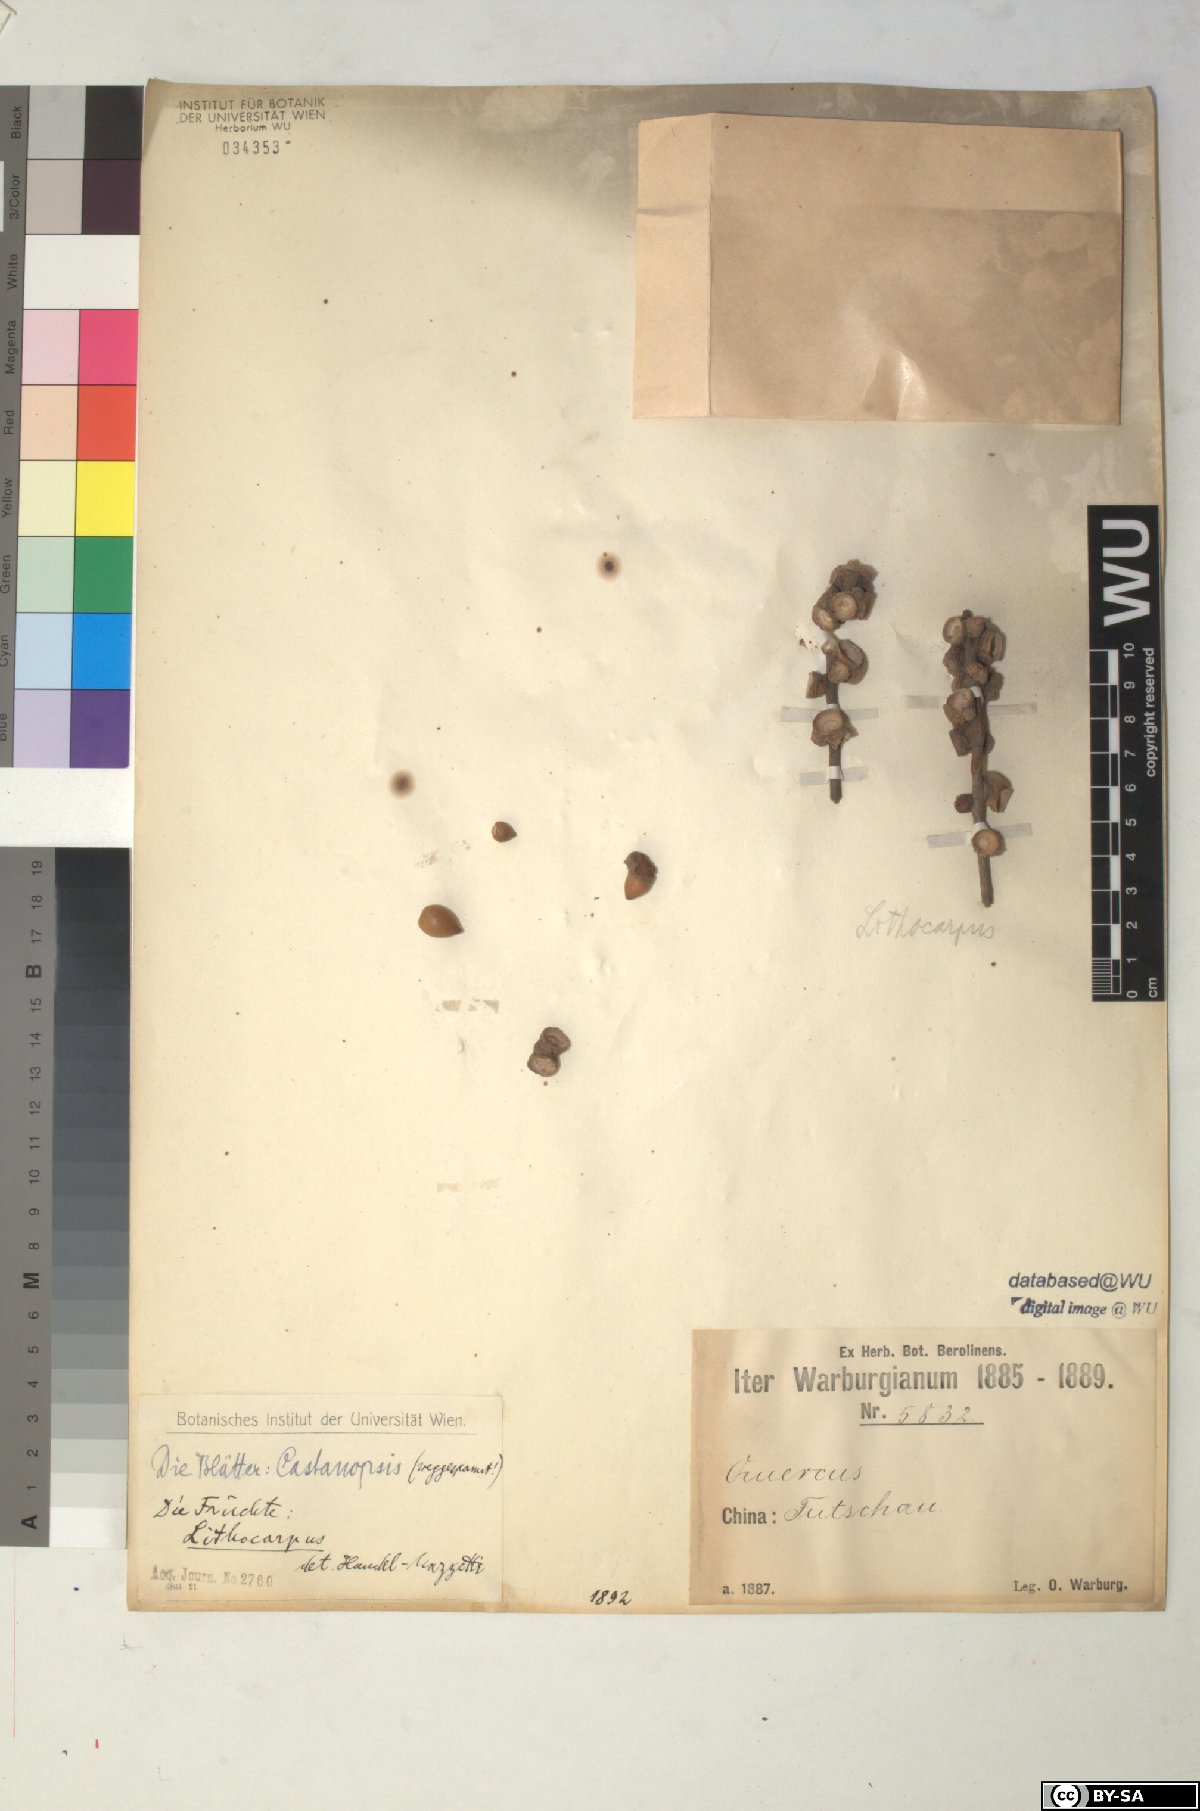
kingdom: Plantae
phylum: Tracheophyta
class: Magnoliopsida
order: Fagales
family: Fagaceae
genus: Lithocarpus
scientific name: Lithocarpus
